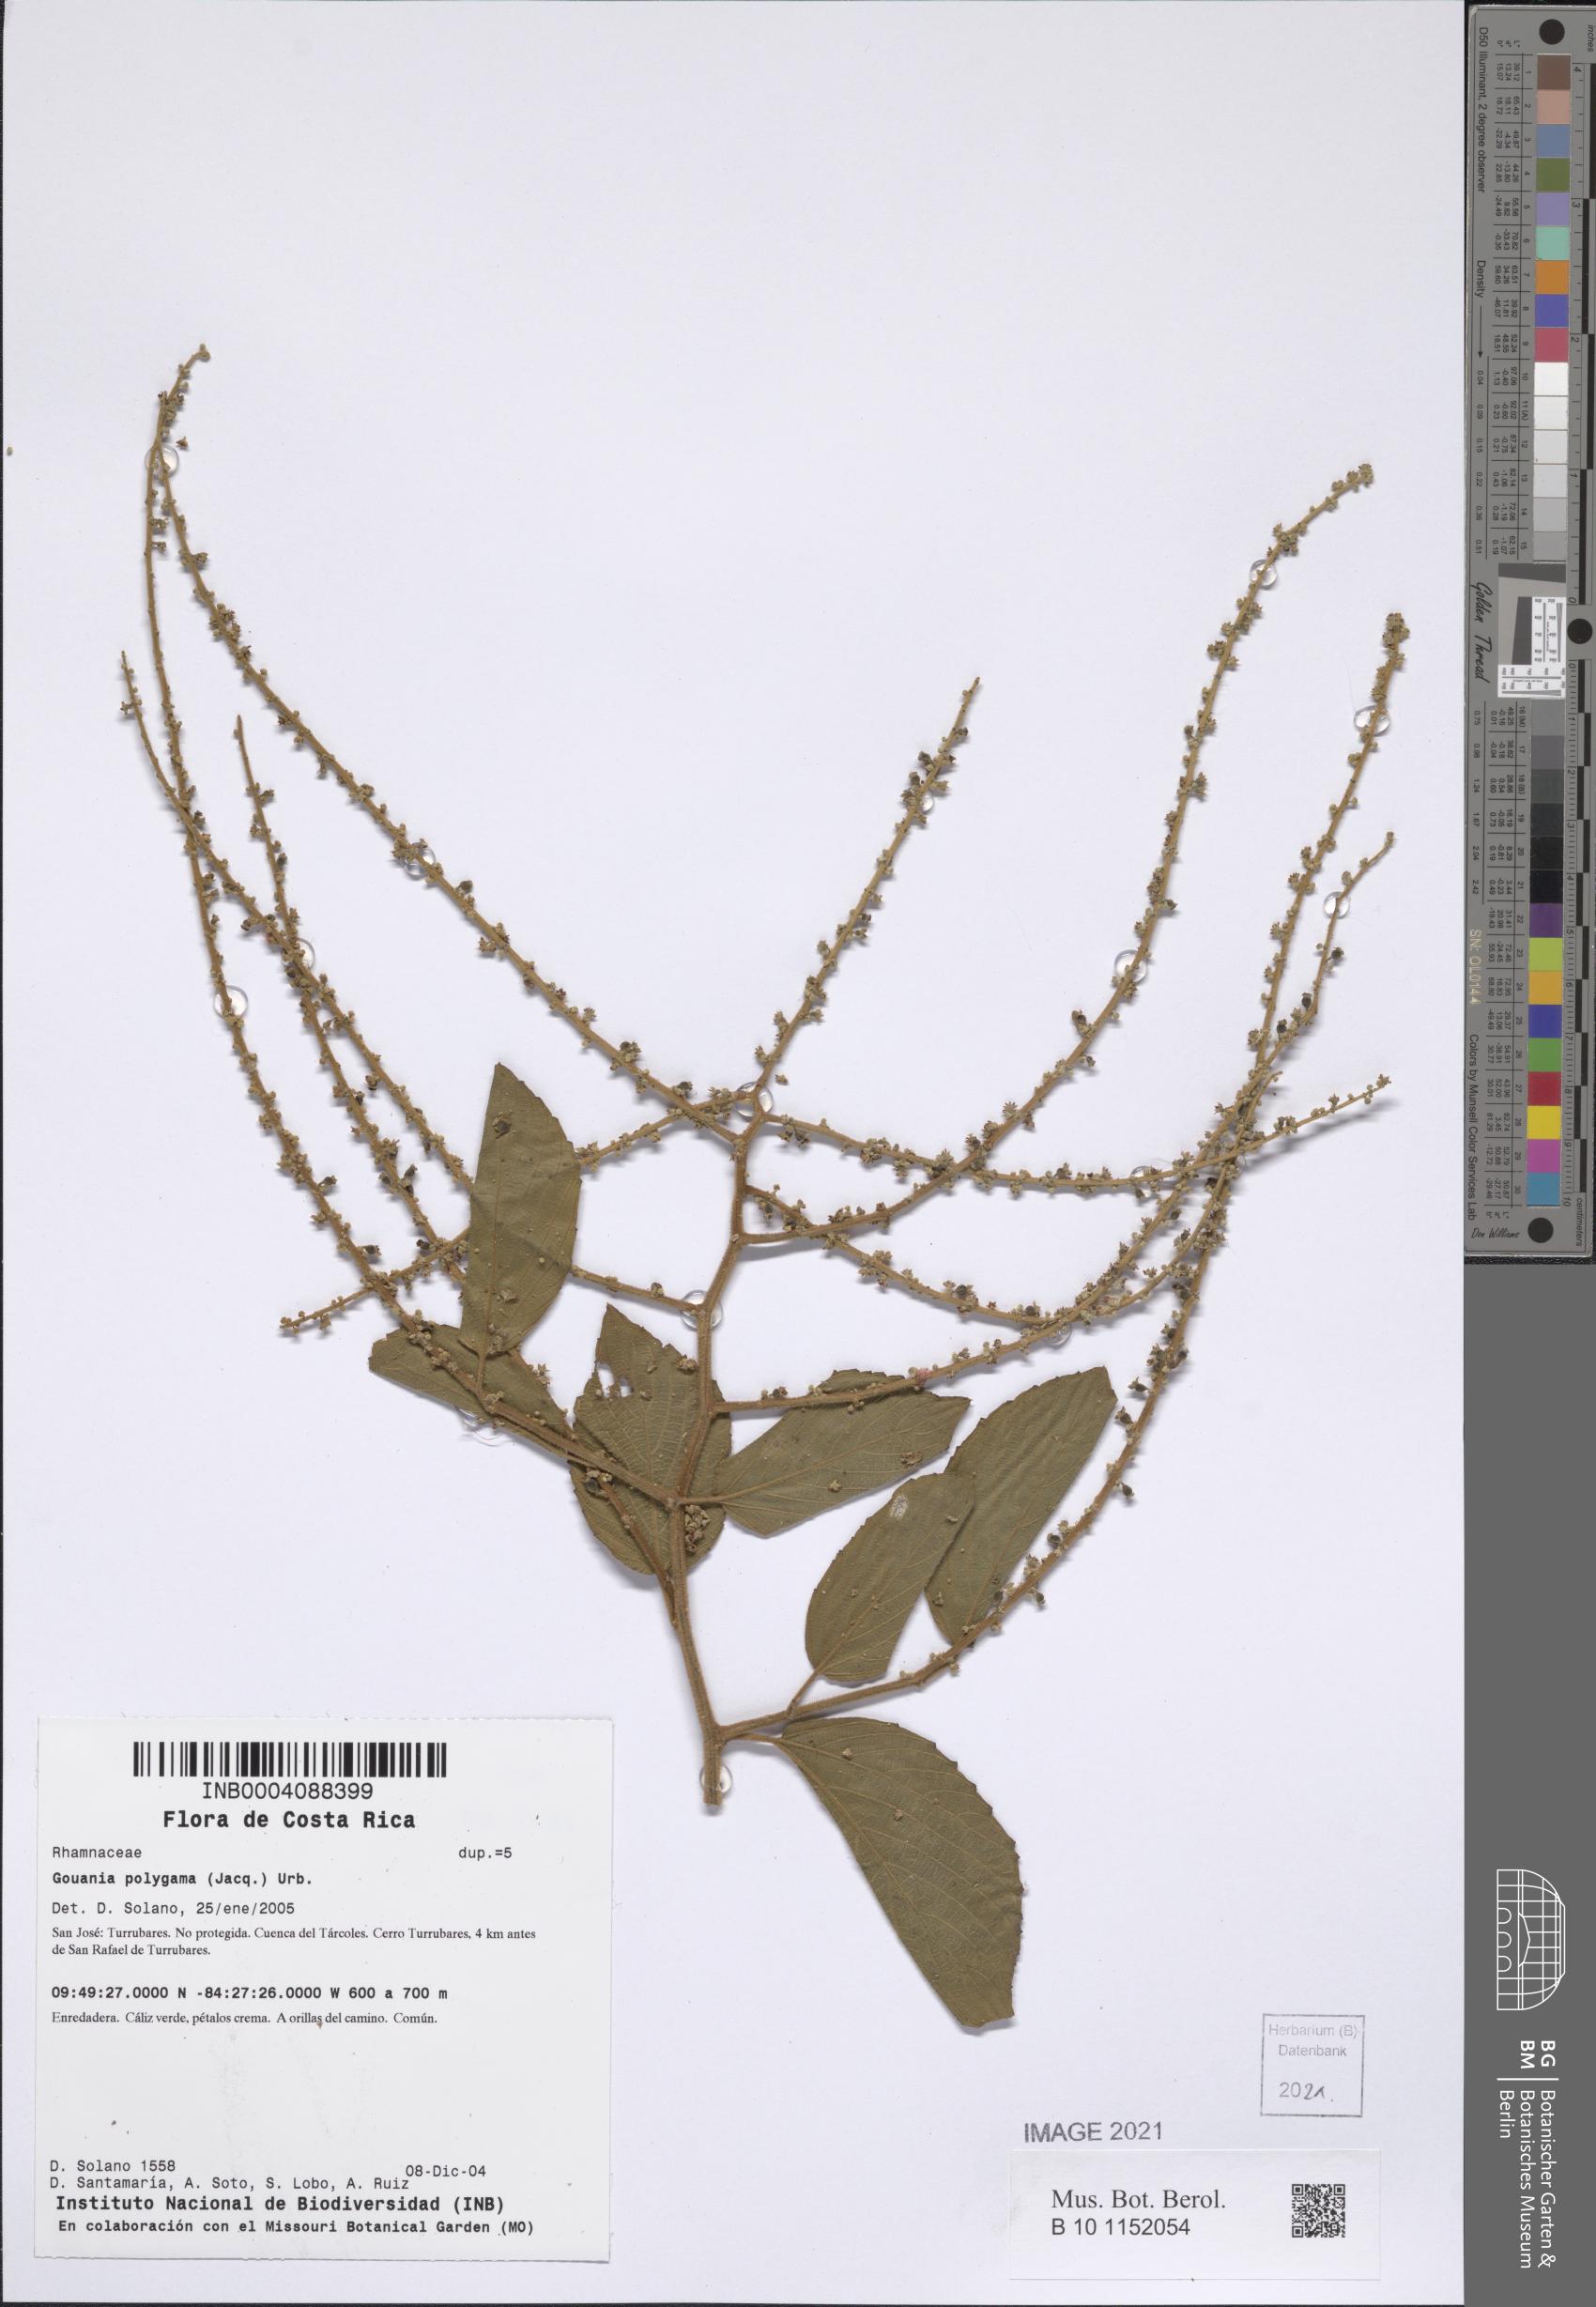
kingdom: Plantae
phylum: Tracheophyta
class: Magnoliopsida
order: Rosales
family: Rhamnaceae
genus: Gouania
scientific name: Gouania polygama
